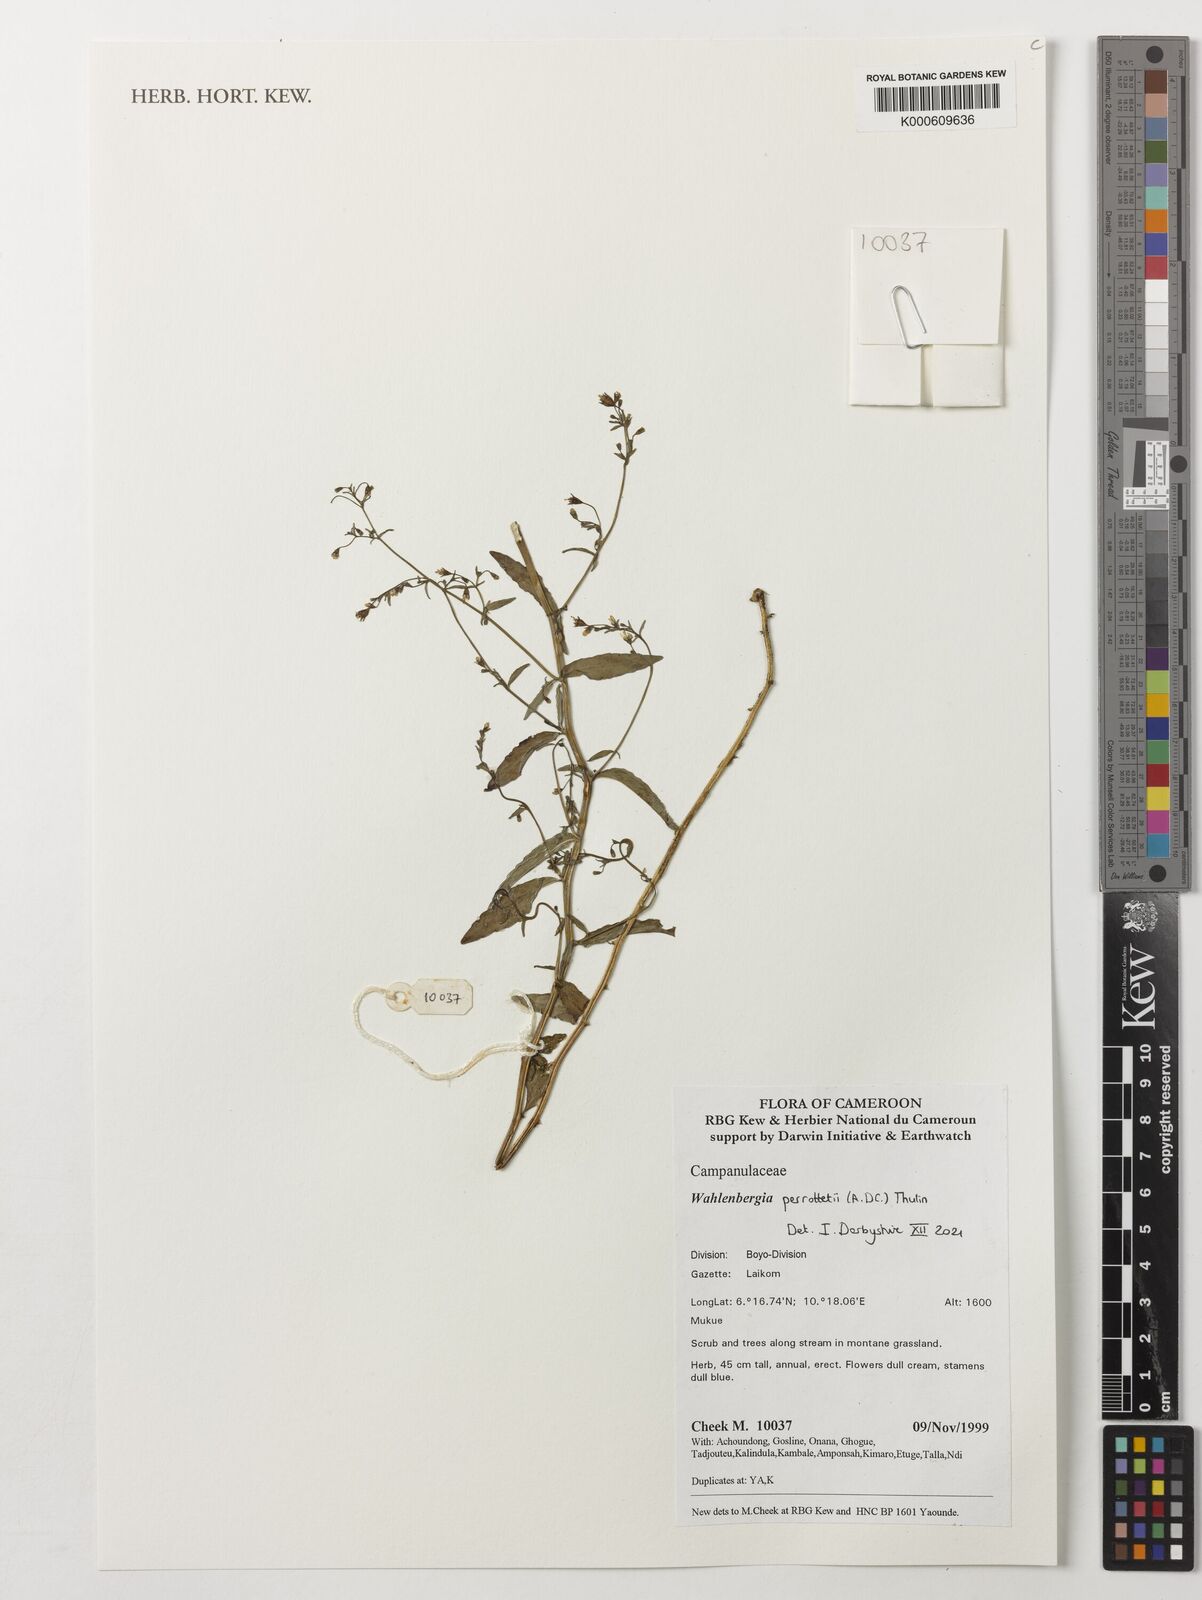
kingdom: Plantae
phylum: Tracheophyta
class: Magnoliopsida
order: Asterales
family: Campanulaceae
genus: Wahlenbergia
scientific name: Wahlenbergia perrottetii
